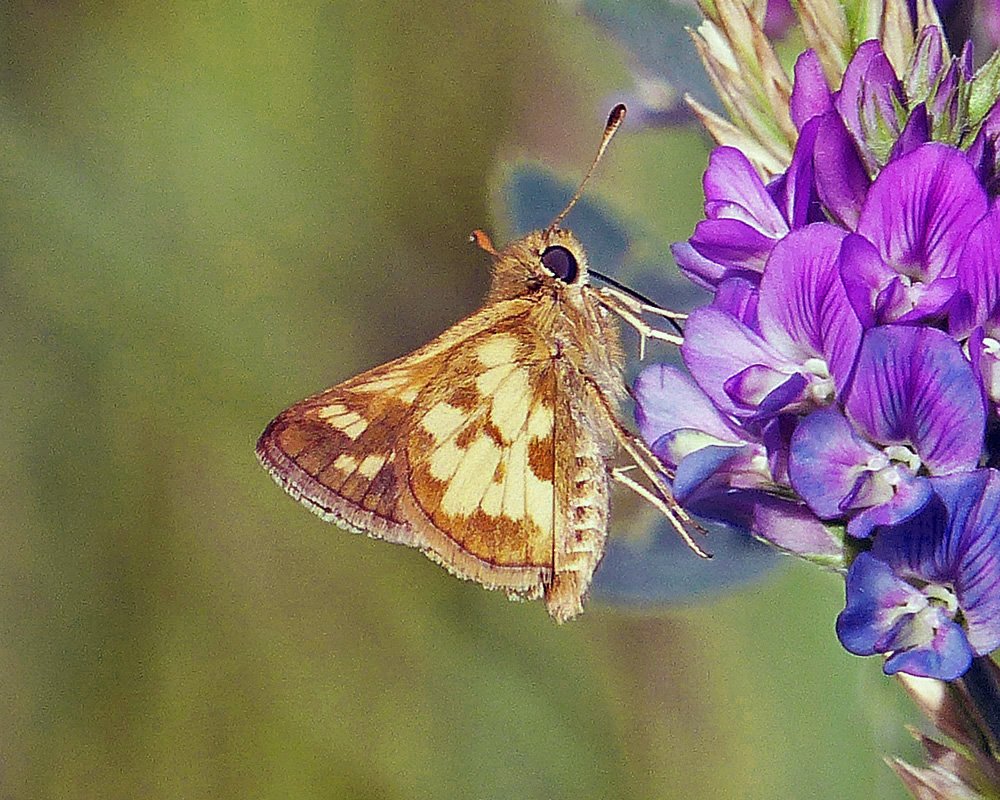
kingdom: Animalia
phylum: Arthropoda
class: Insecta
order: Lepidoptera
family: Hesperiidae
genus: Polites
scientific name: Polites coras
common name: Peck's Skipper
